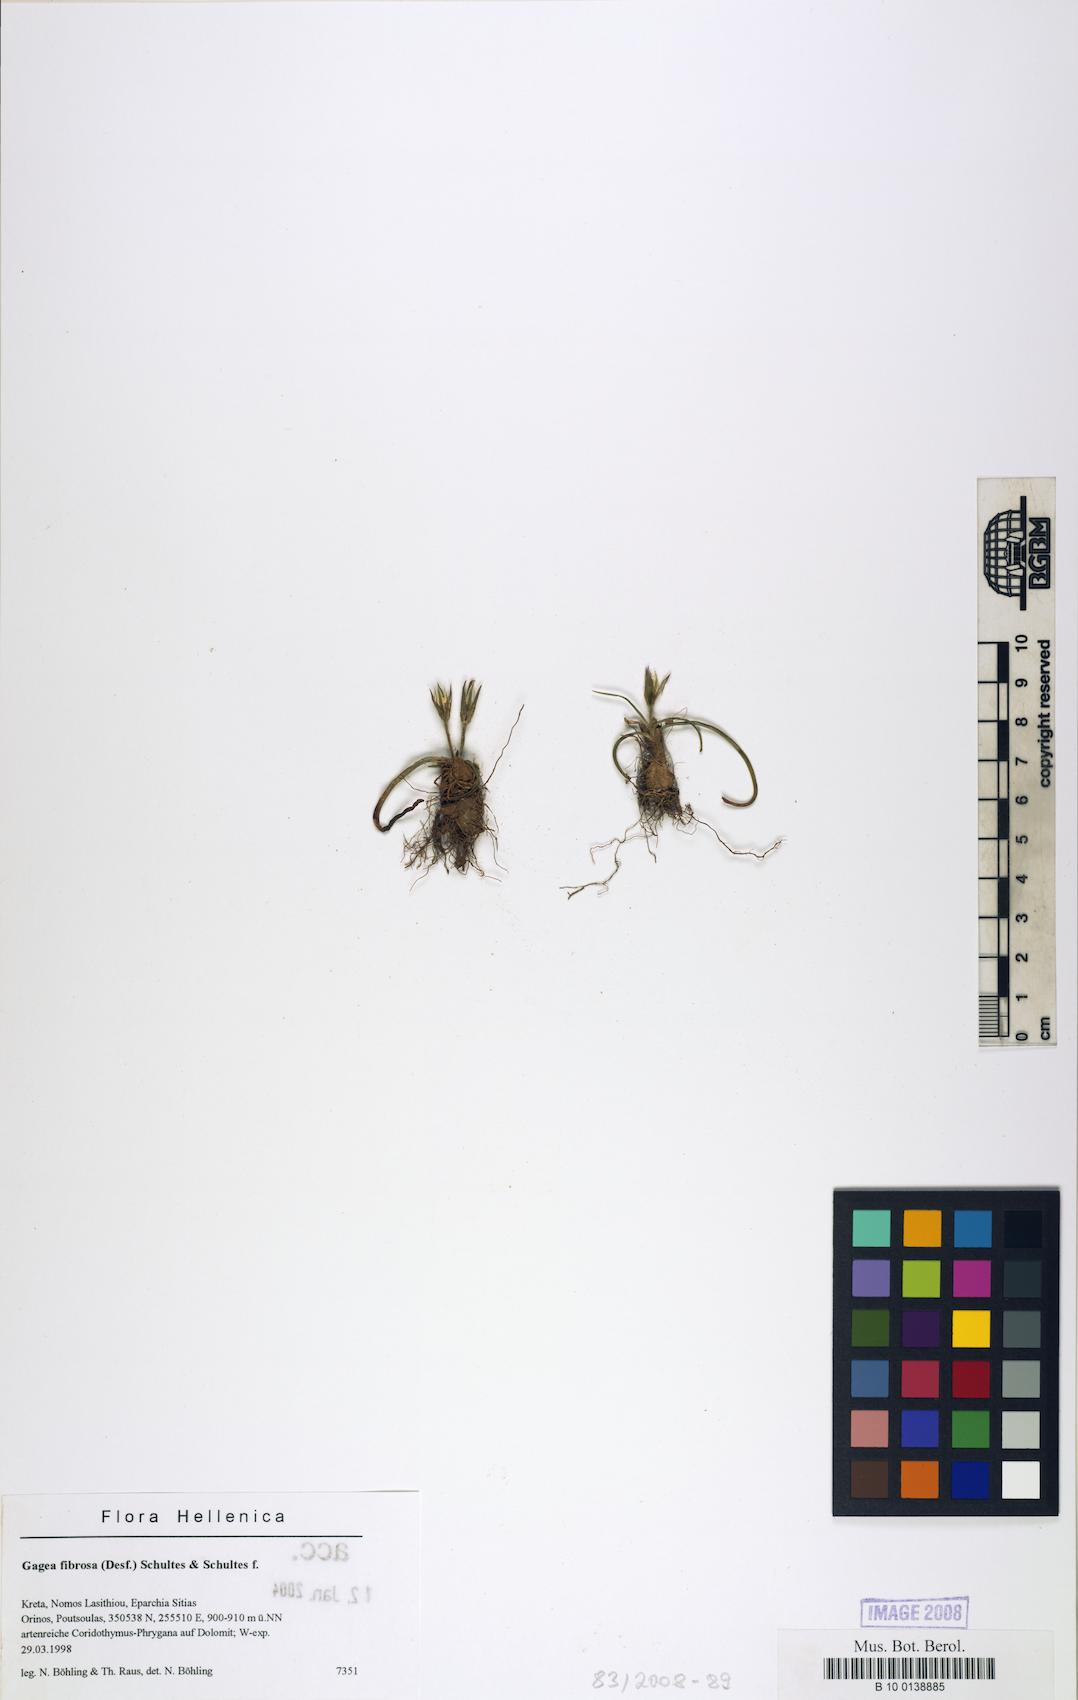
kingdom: Plantae
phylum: Tracheophyta
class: Liliopsida
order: Liliales
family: Liliaceae
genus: Gagea
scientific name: Gagea fibrosa
